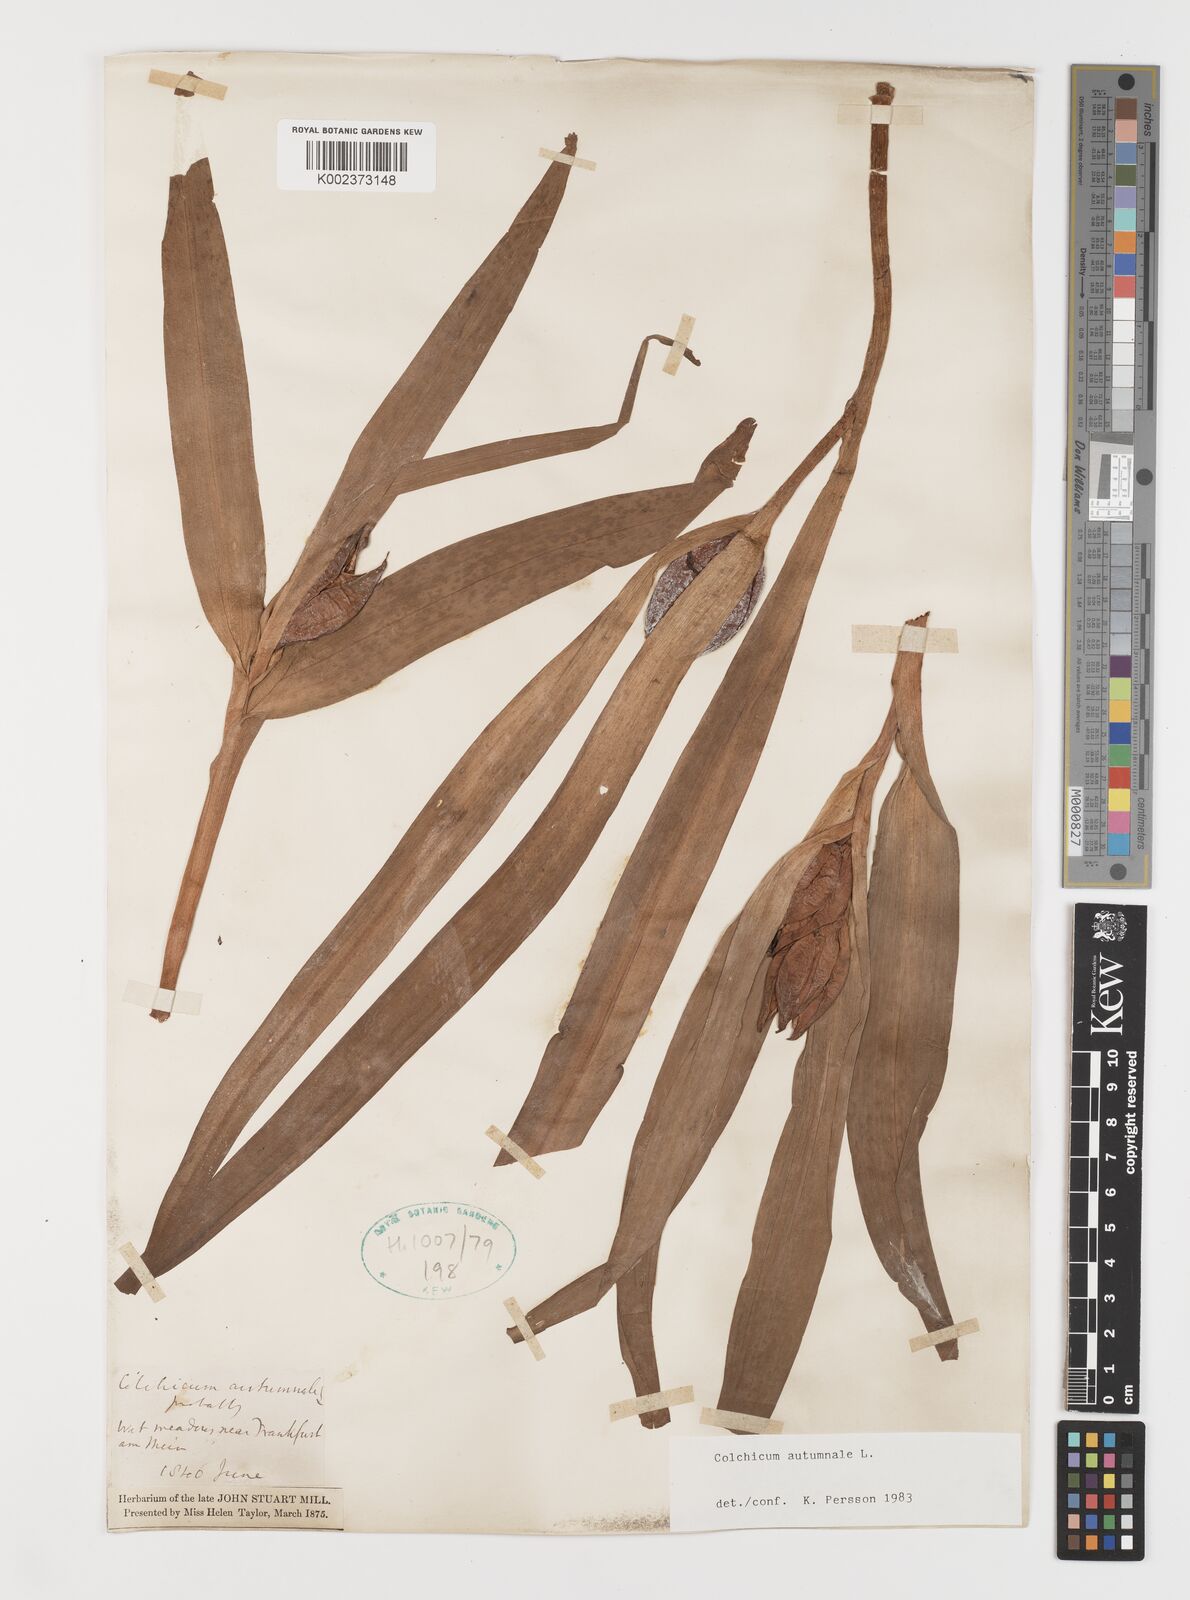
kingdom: Plantae
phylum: Tracheophyta
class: Liliopsida
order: Liliales
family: Colchicaceae
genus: Colchicum
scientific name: Colchicum autumnale
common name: Autumn crocus
